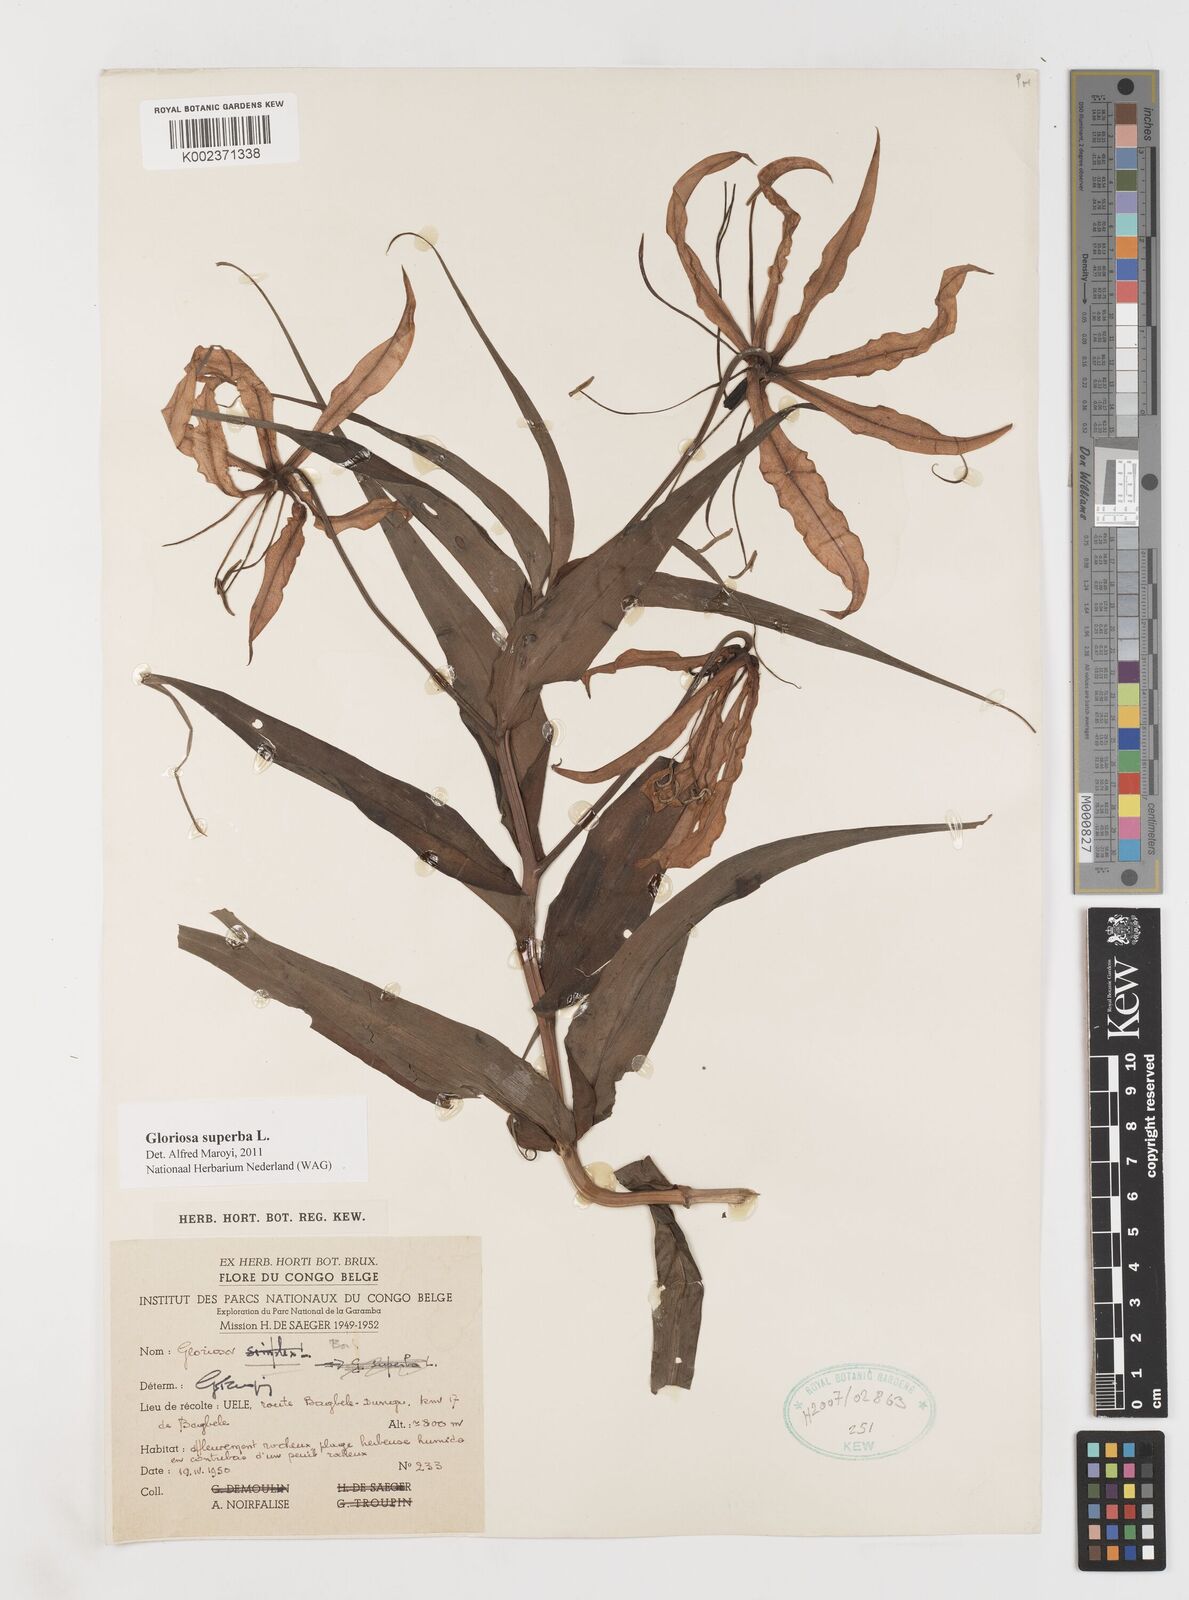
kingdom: Plantae
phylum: Tracheophyta
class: Liliopsida
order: Liliales
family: Colchicaceae
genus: Gloriosa
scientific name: Gloriosa superba
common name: Flame lily
